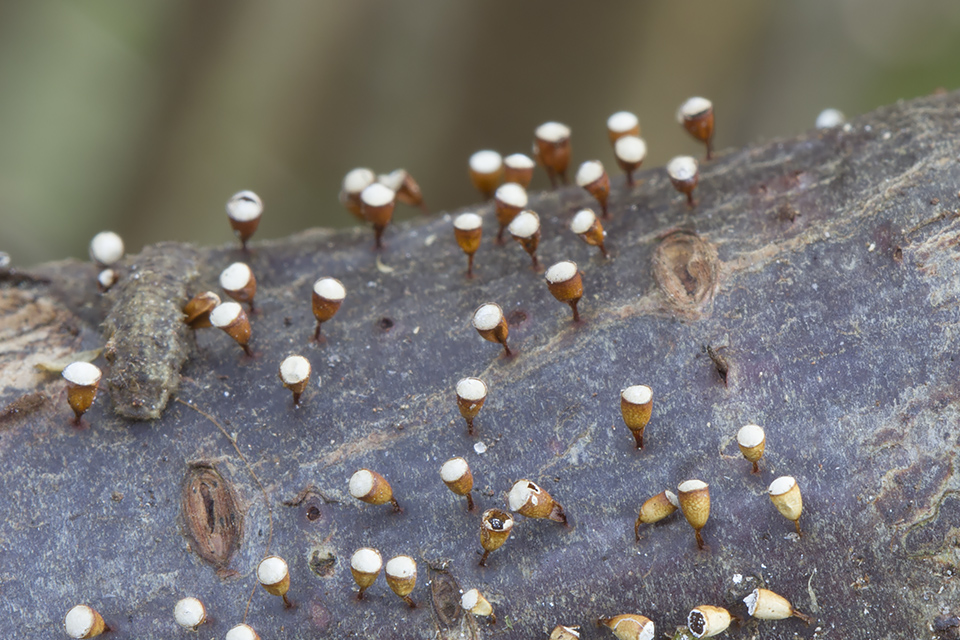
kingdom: Protozoa
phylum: Mycetozoa
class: Myxomycetes
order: Physarales
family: Physaraceae
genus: Craterium
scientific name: Craterium minutum
